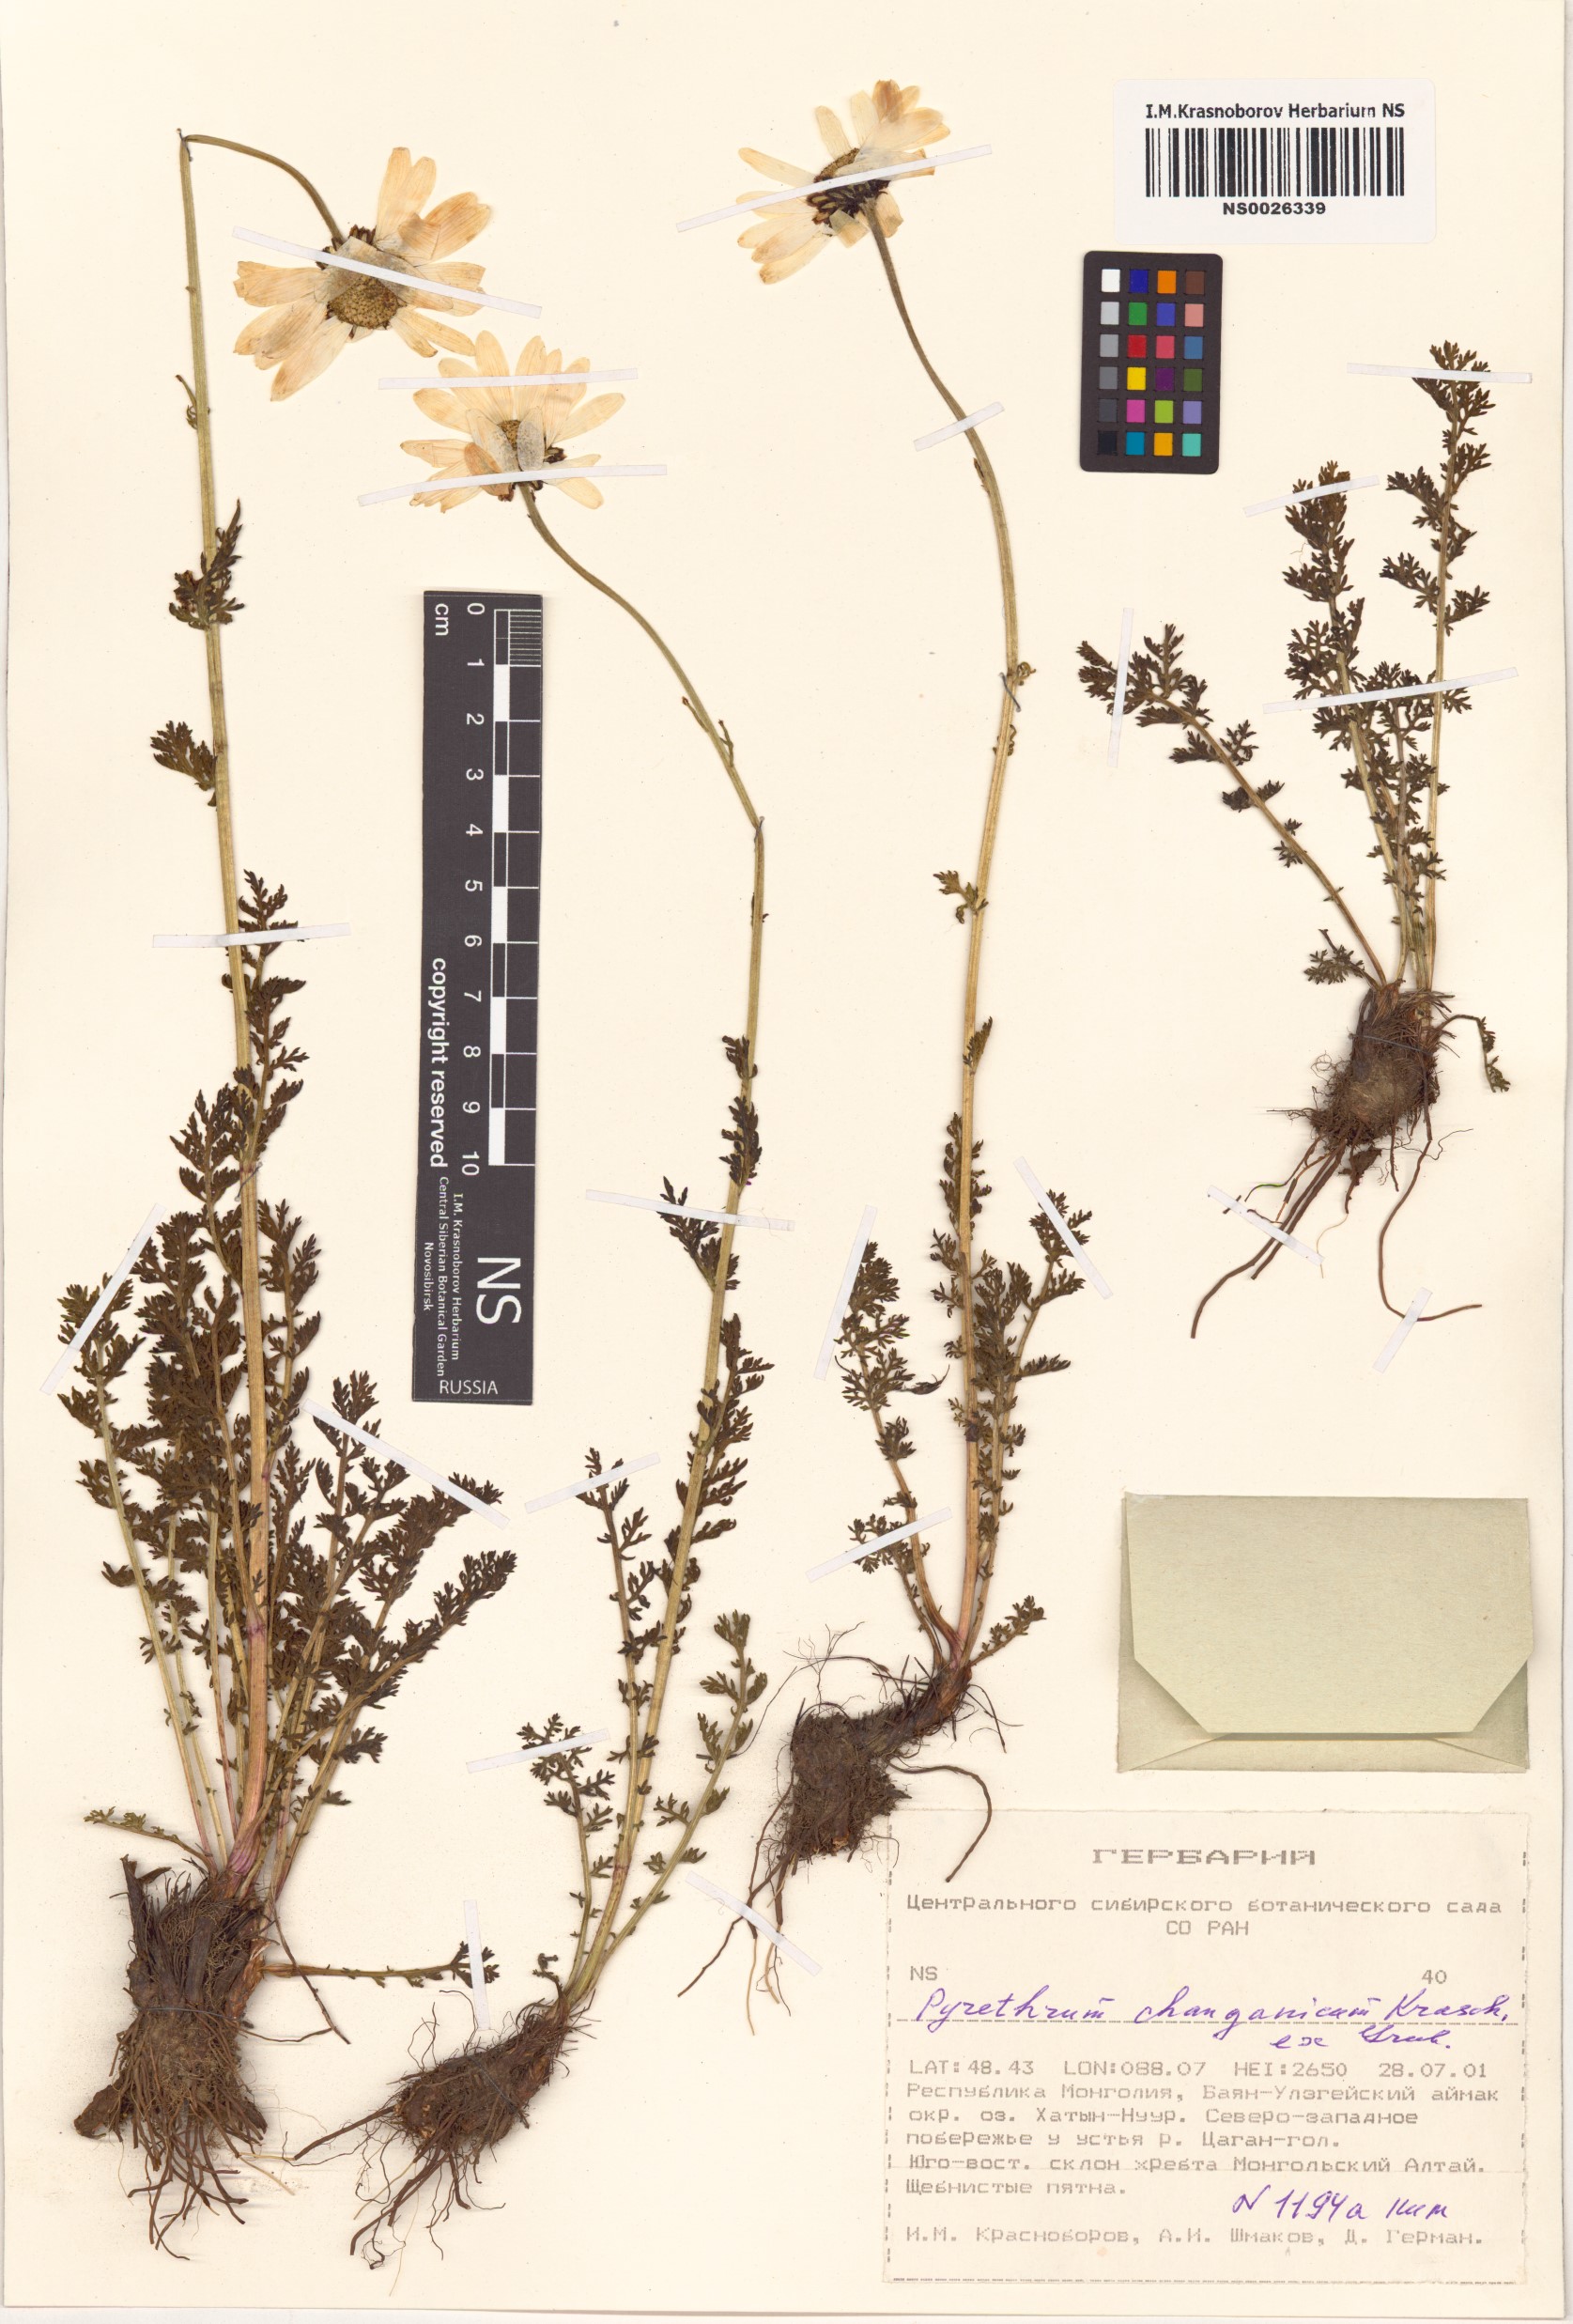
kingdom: Plantae
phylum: Tracheophyta
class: Magnoliopsida
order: Asterales
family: Asteraceae
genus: Tanacetum
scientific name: Tanacetum changaicum
